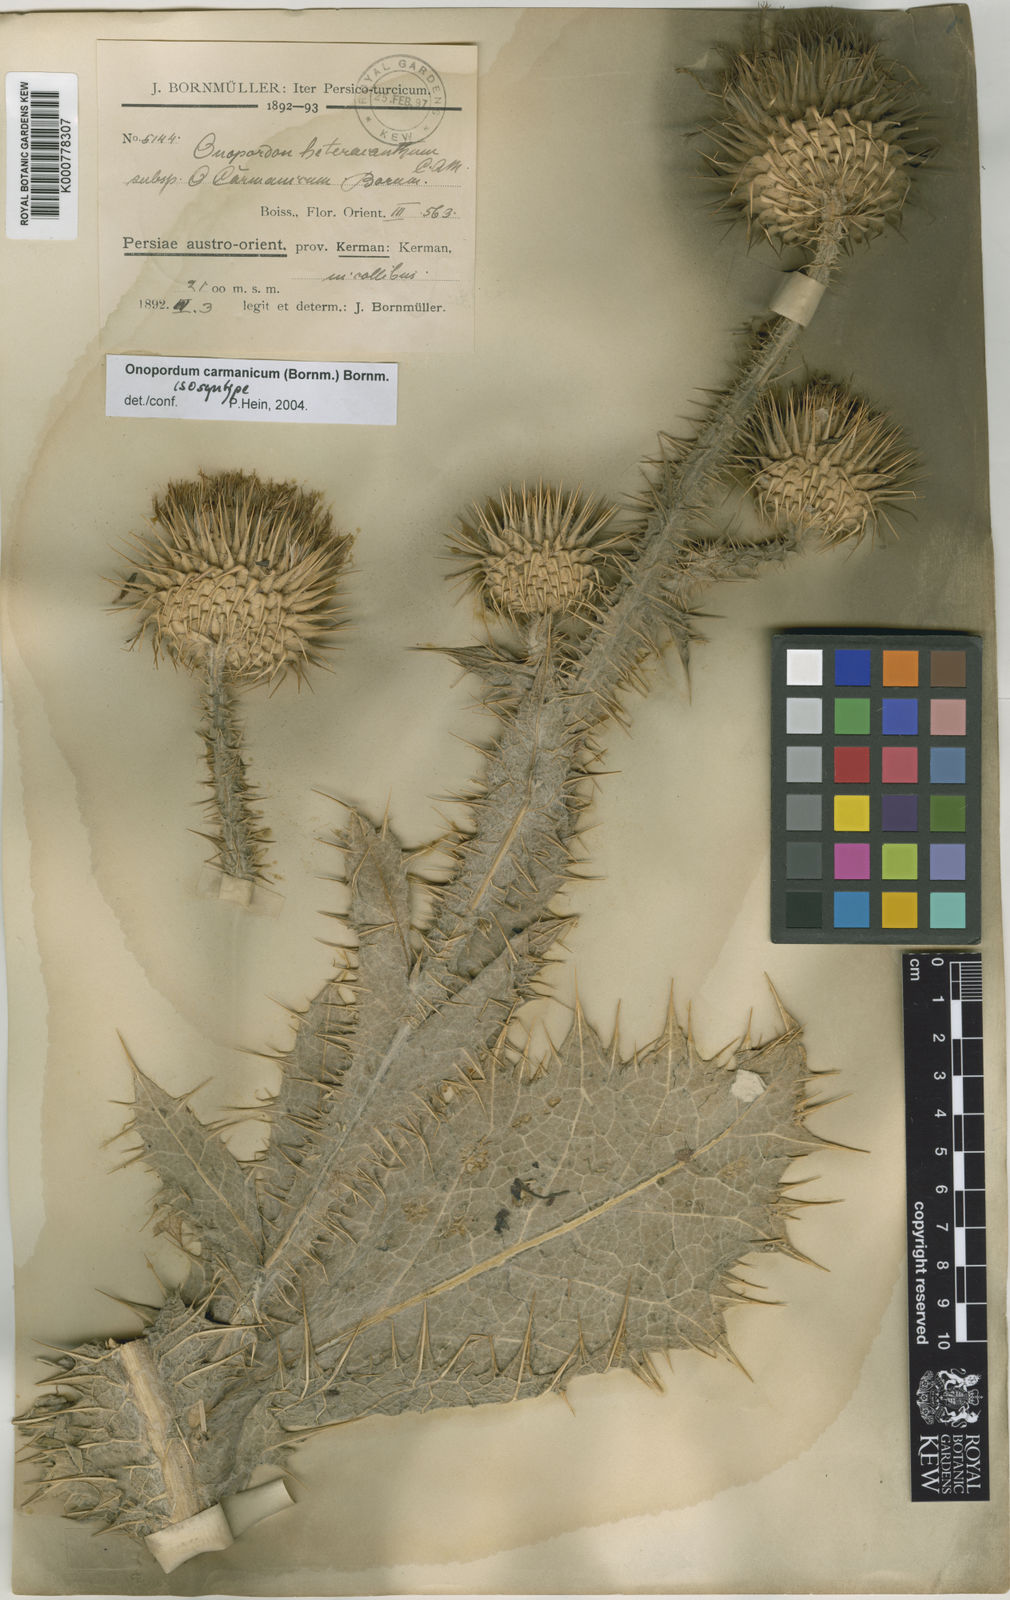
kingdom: Plantae
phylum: Tracheophyta
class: Magnoliopsida
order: Asterales
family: Asteraceae
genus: Onopordum
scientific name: Onopordum carmanicum
